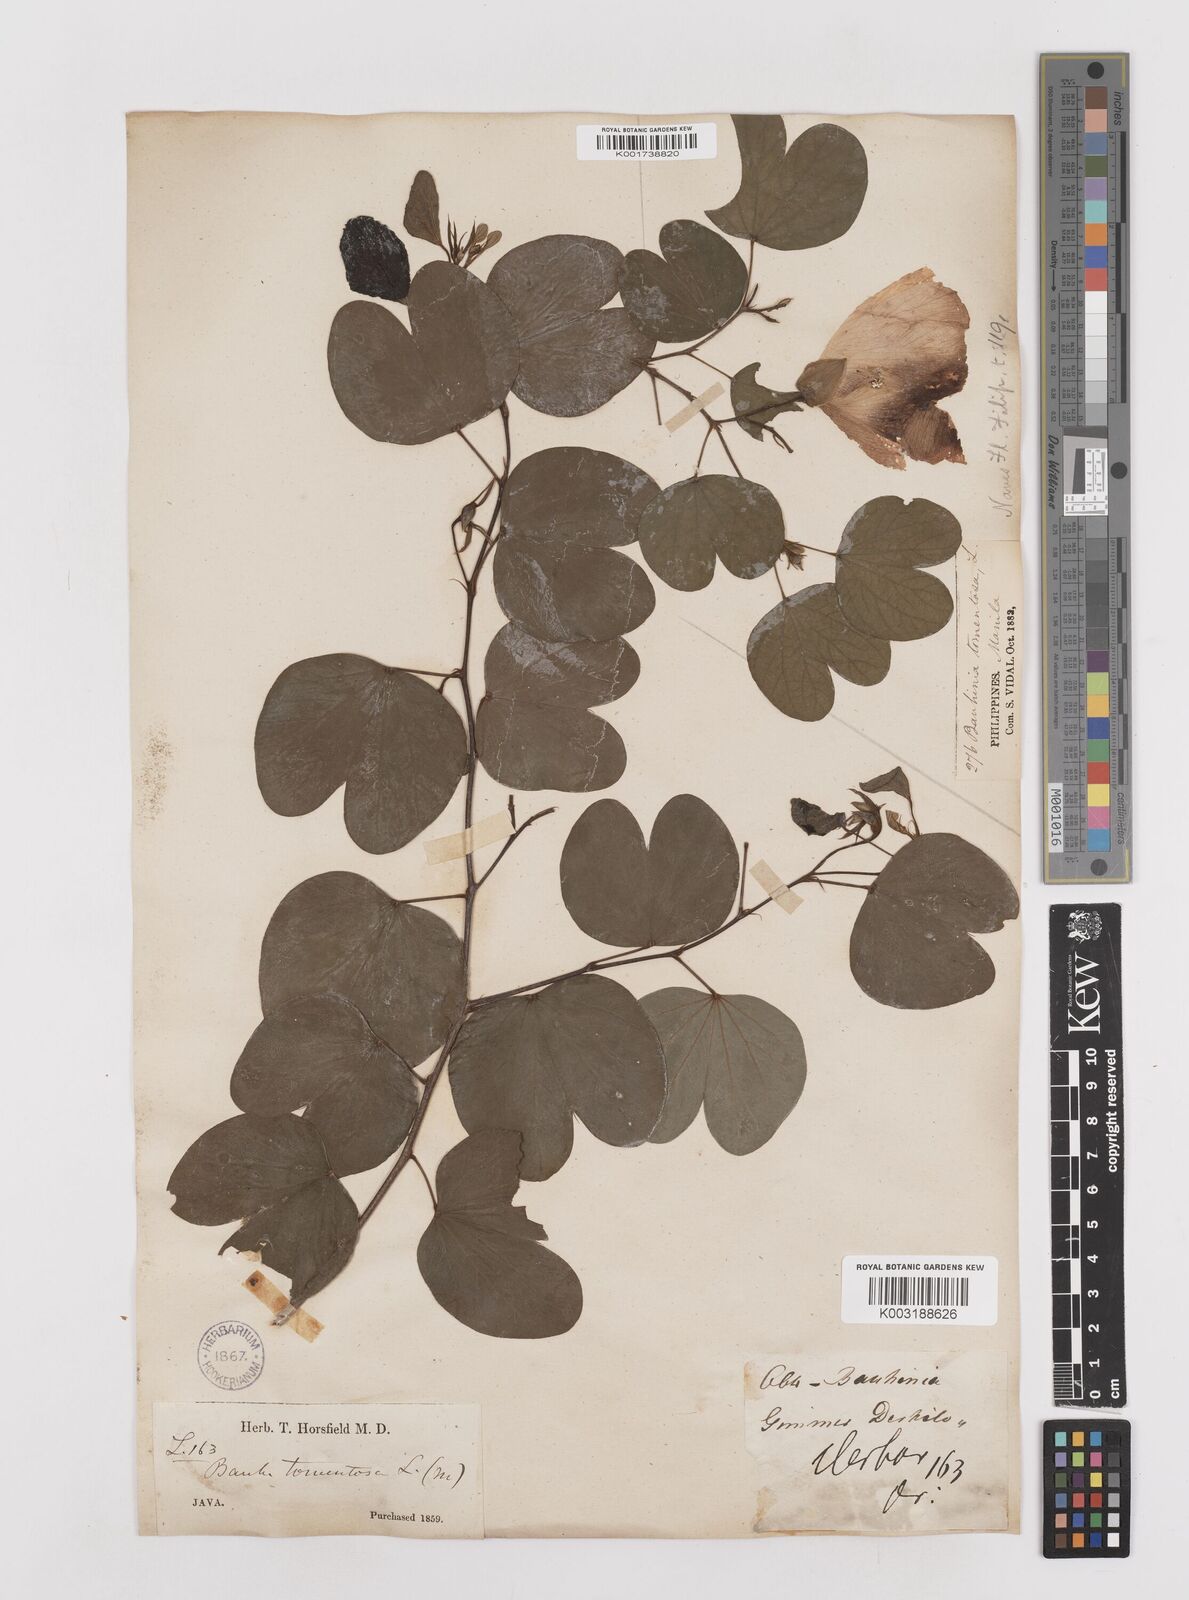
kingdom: Plantae
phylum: Tracheophyta
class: Magnoliopsida
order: Fabales
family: Fabaceae
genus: Bauhinia
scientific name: Bauhinia tomentosa
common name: Bell bauhinia
